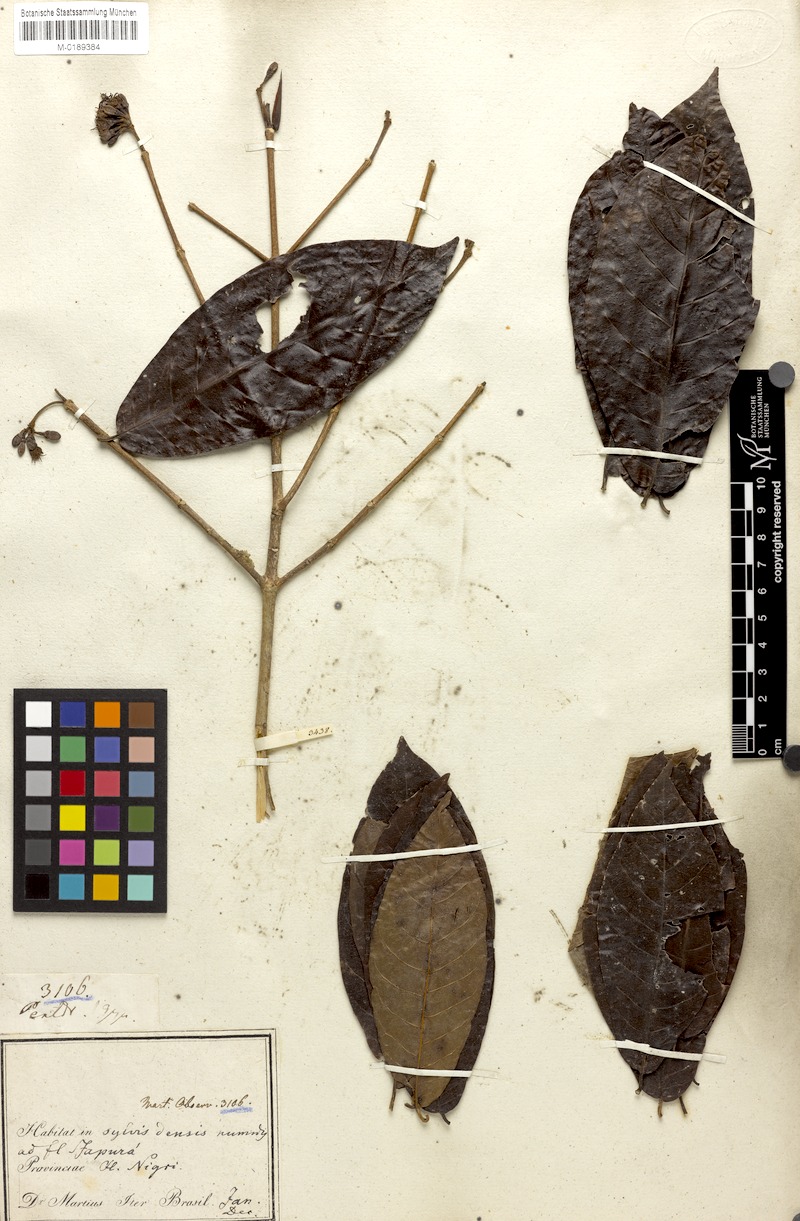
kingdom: Plantae
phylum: Tracheophyta
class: Magnoliopsida
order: Gentianales
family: Rubiaceae
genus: Simira
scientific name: Simira rubescens
